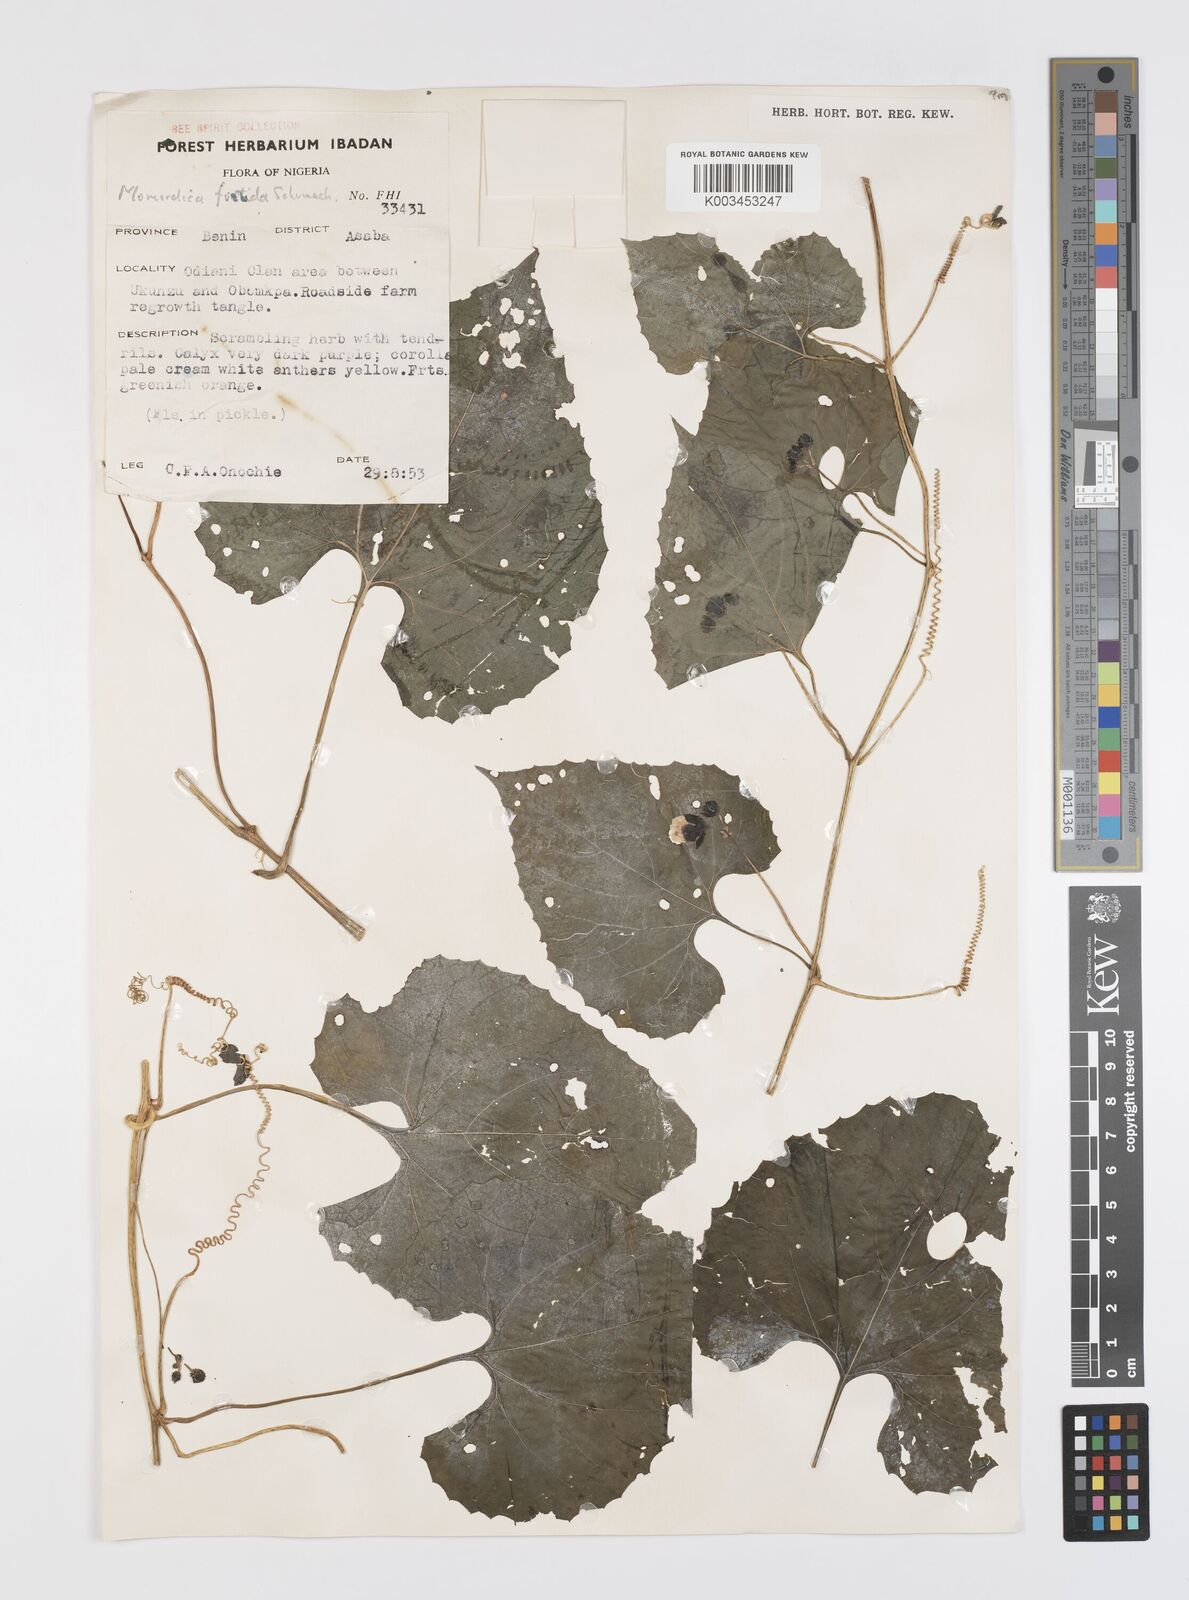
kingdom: Plantae
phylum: Tracheophyta
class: Magnoliopsida
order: Cucurbitales
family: Cucurbitaceae
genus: Momordica
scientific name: Momordica foetida
